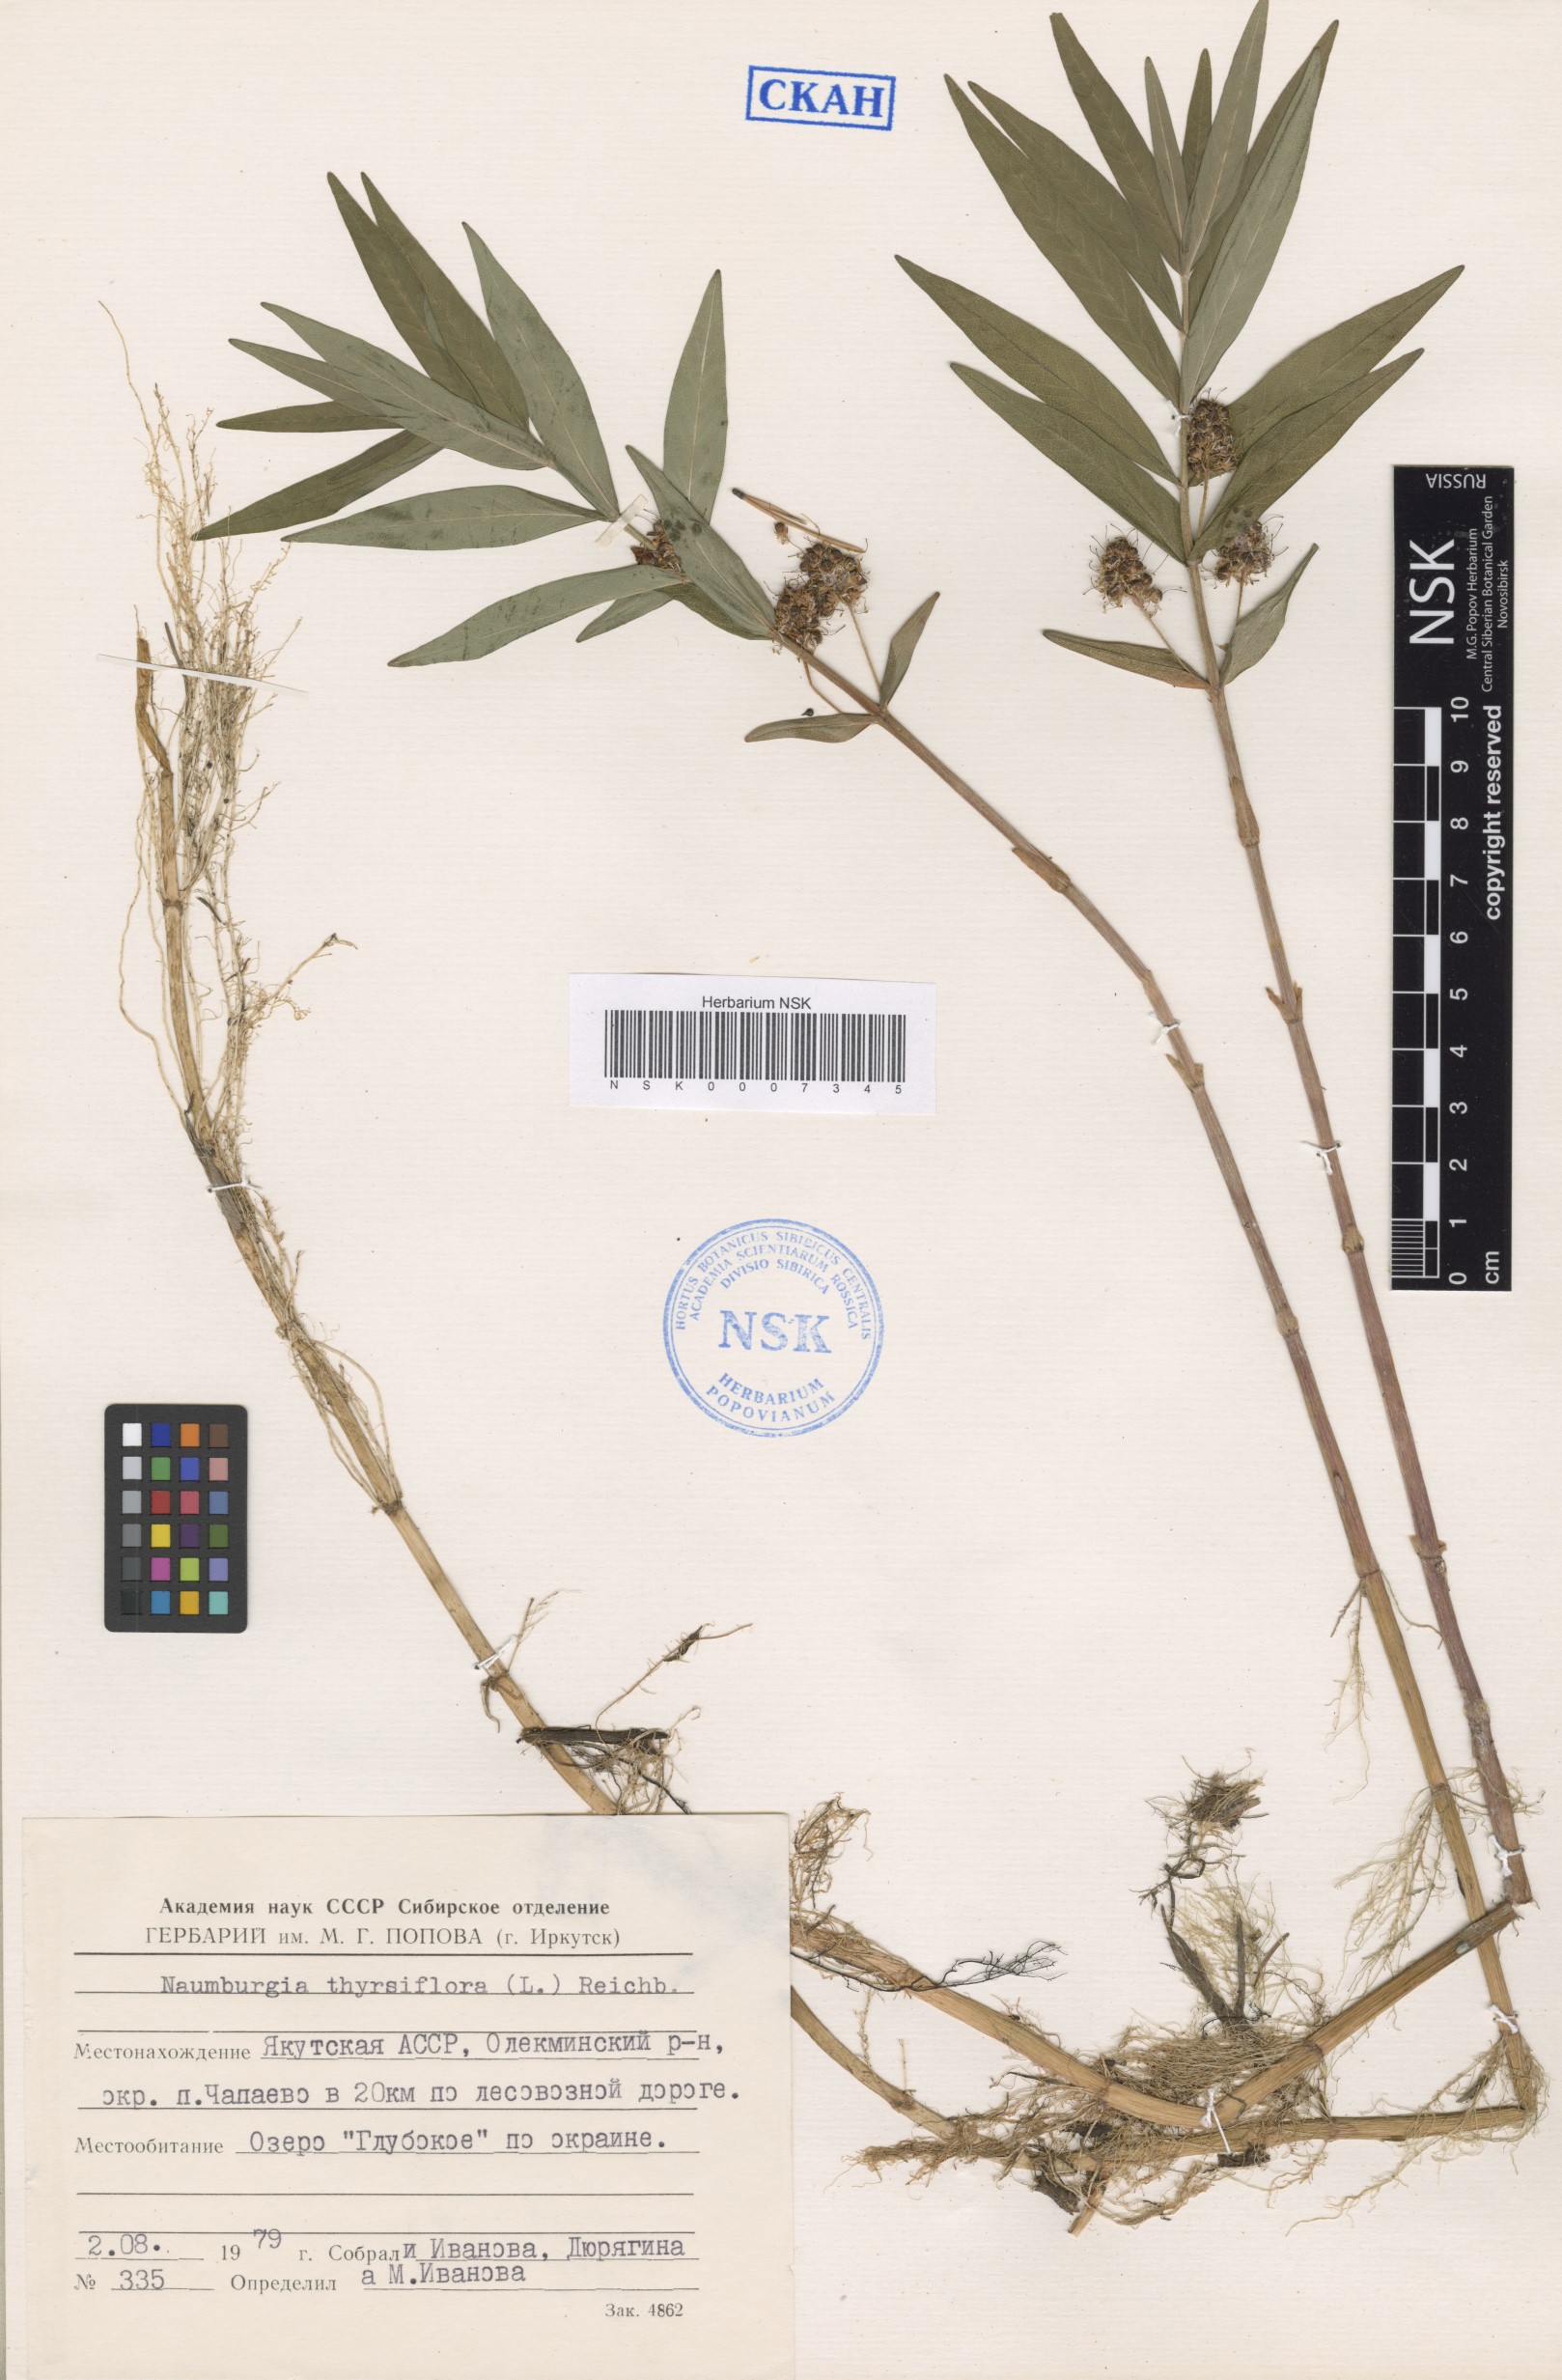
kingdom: Plantae
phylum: Tracheophyta
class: Magnoliopsida
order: Ericales
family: Primulaceae
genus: Lysimachia
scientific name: Lysimachia thyrsiflora
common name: Tufted loosestrife
